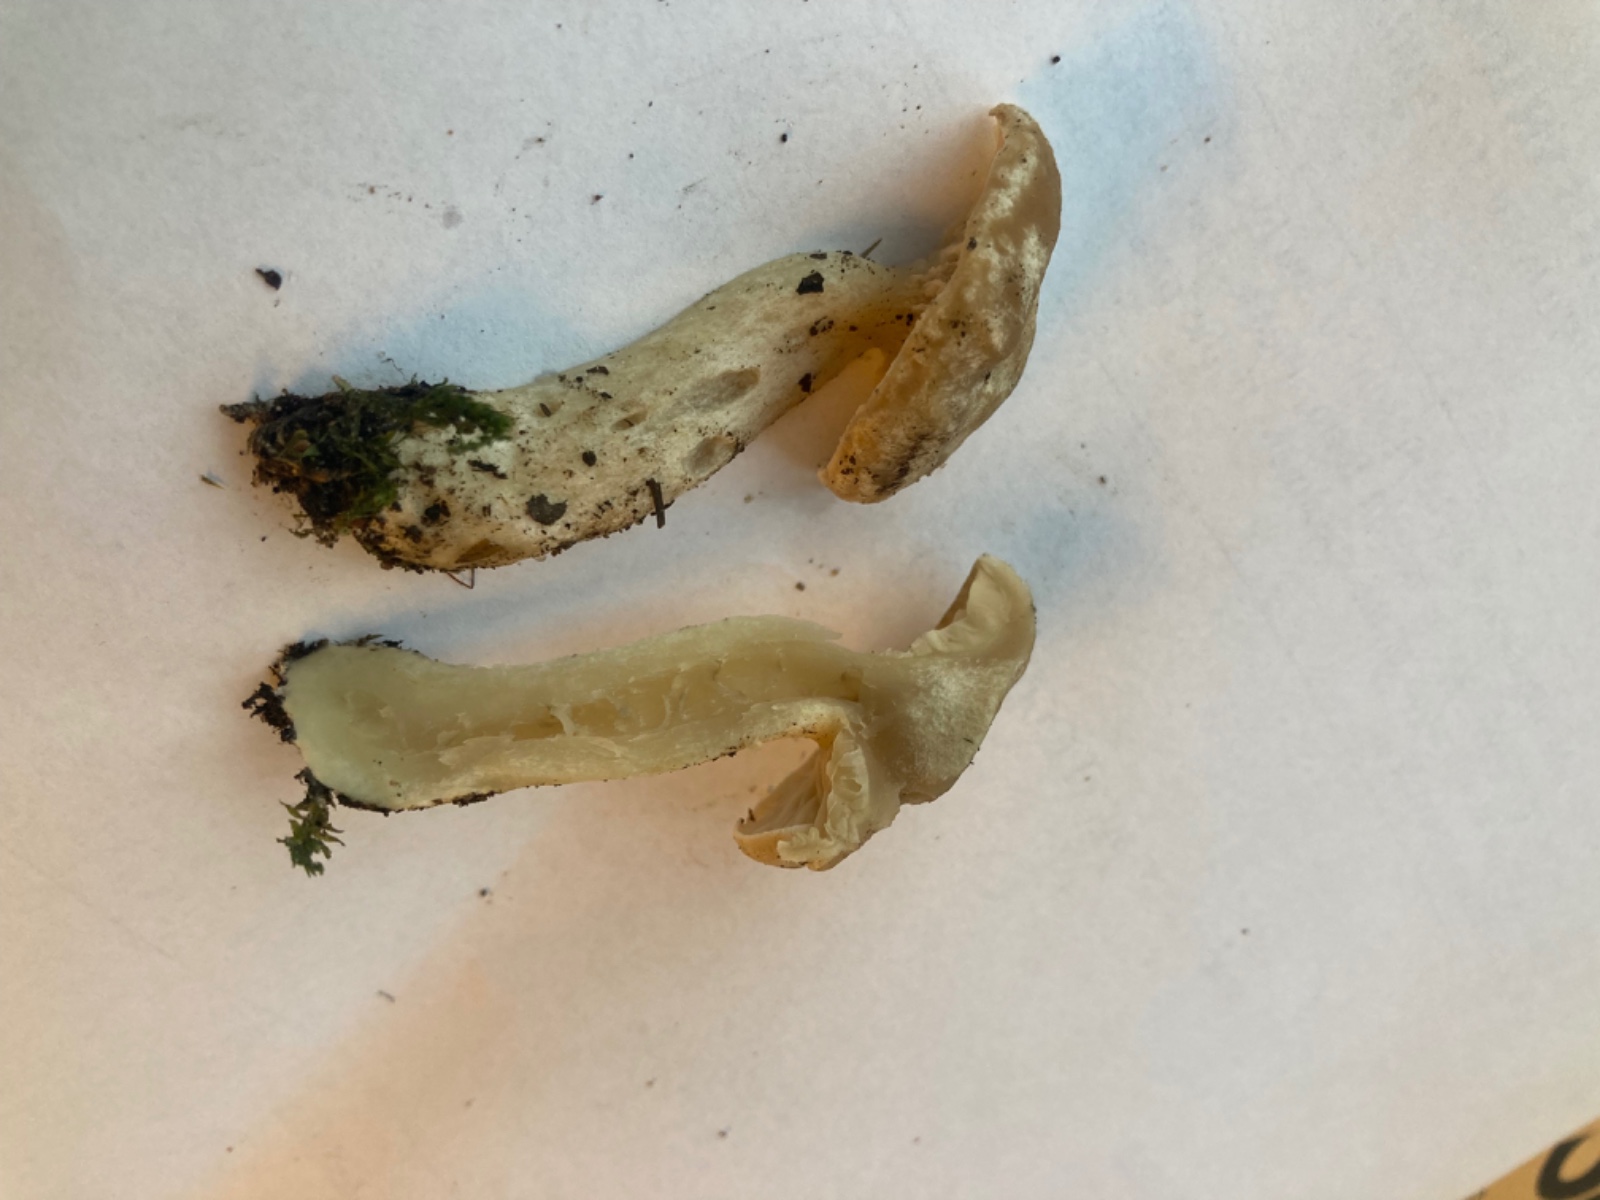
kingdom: Fungi
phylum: Basidiomycota
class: Agaricomycetes
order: Agaricales
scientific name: Agaricales
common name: champignonordenen
